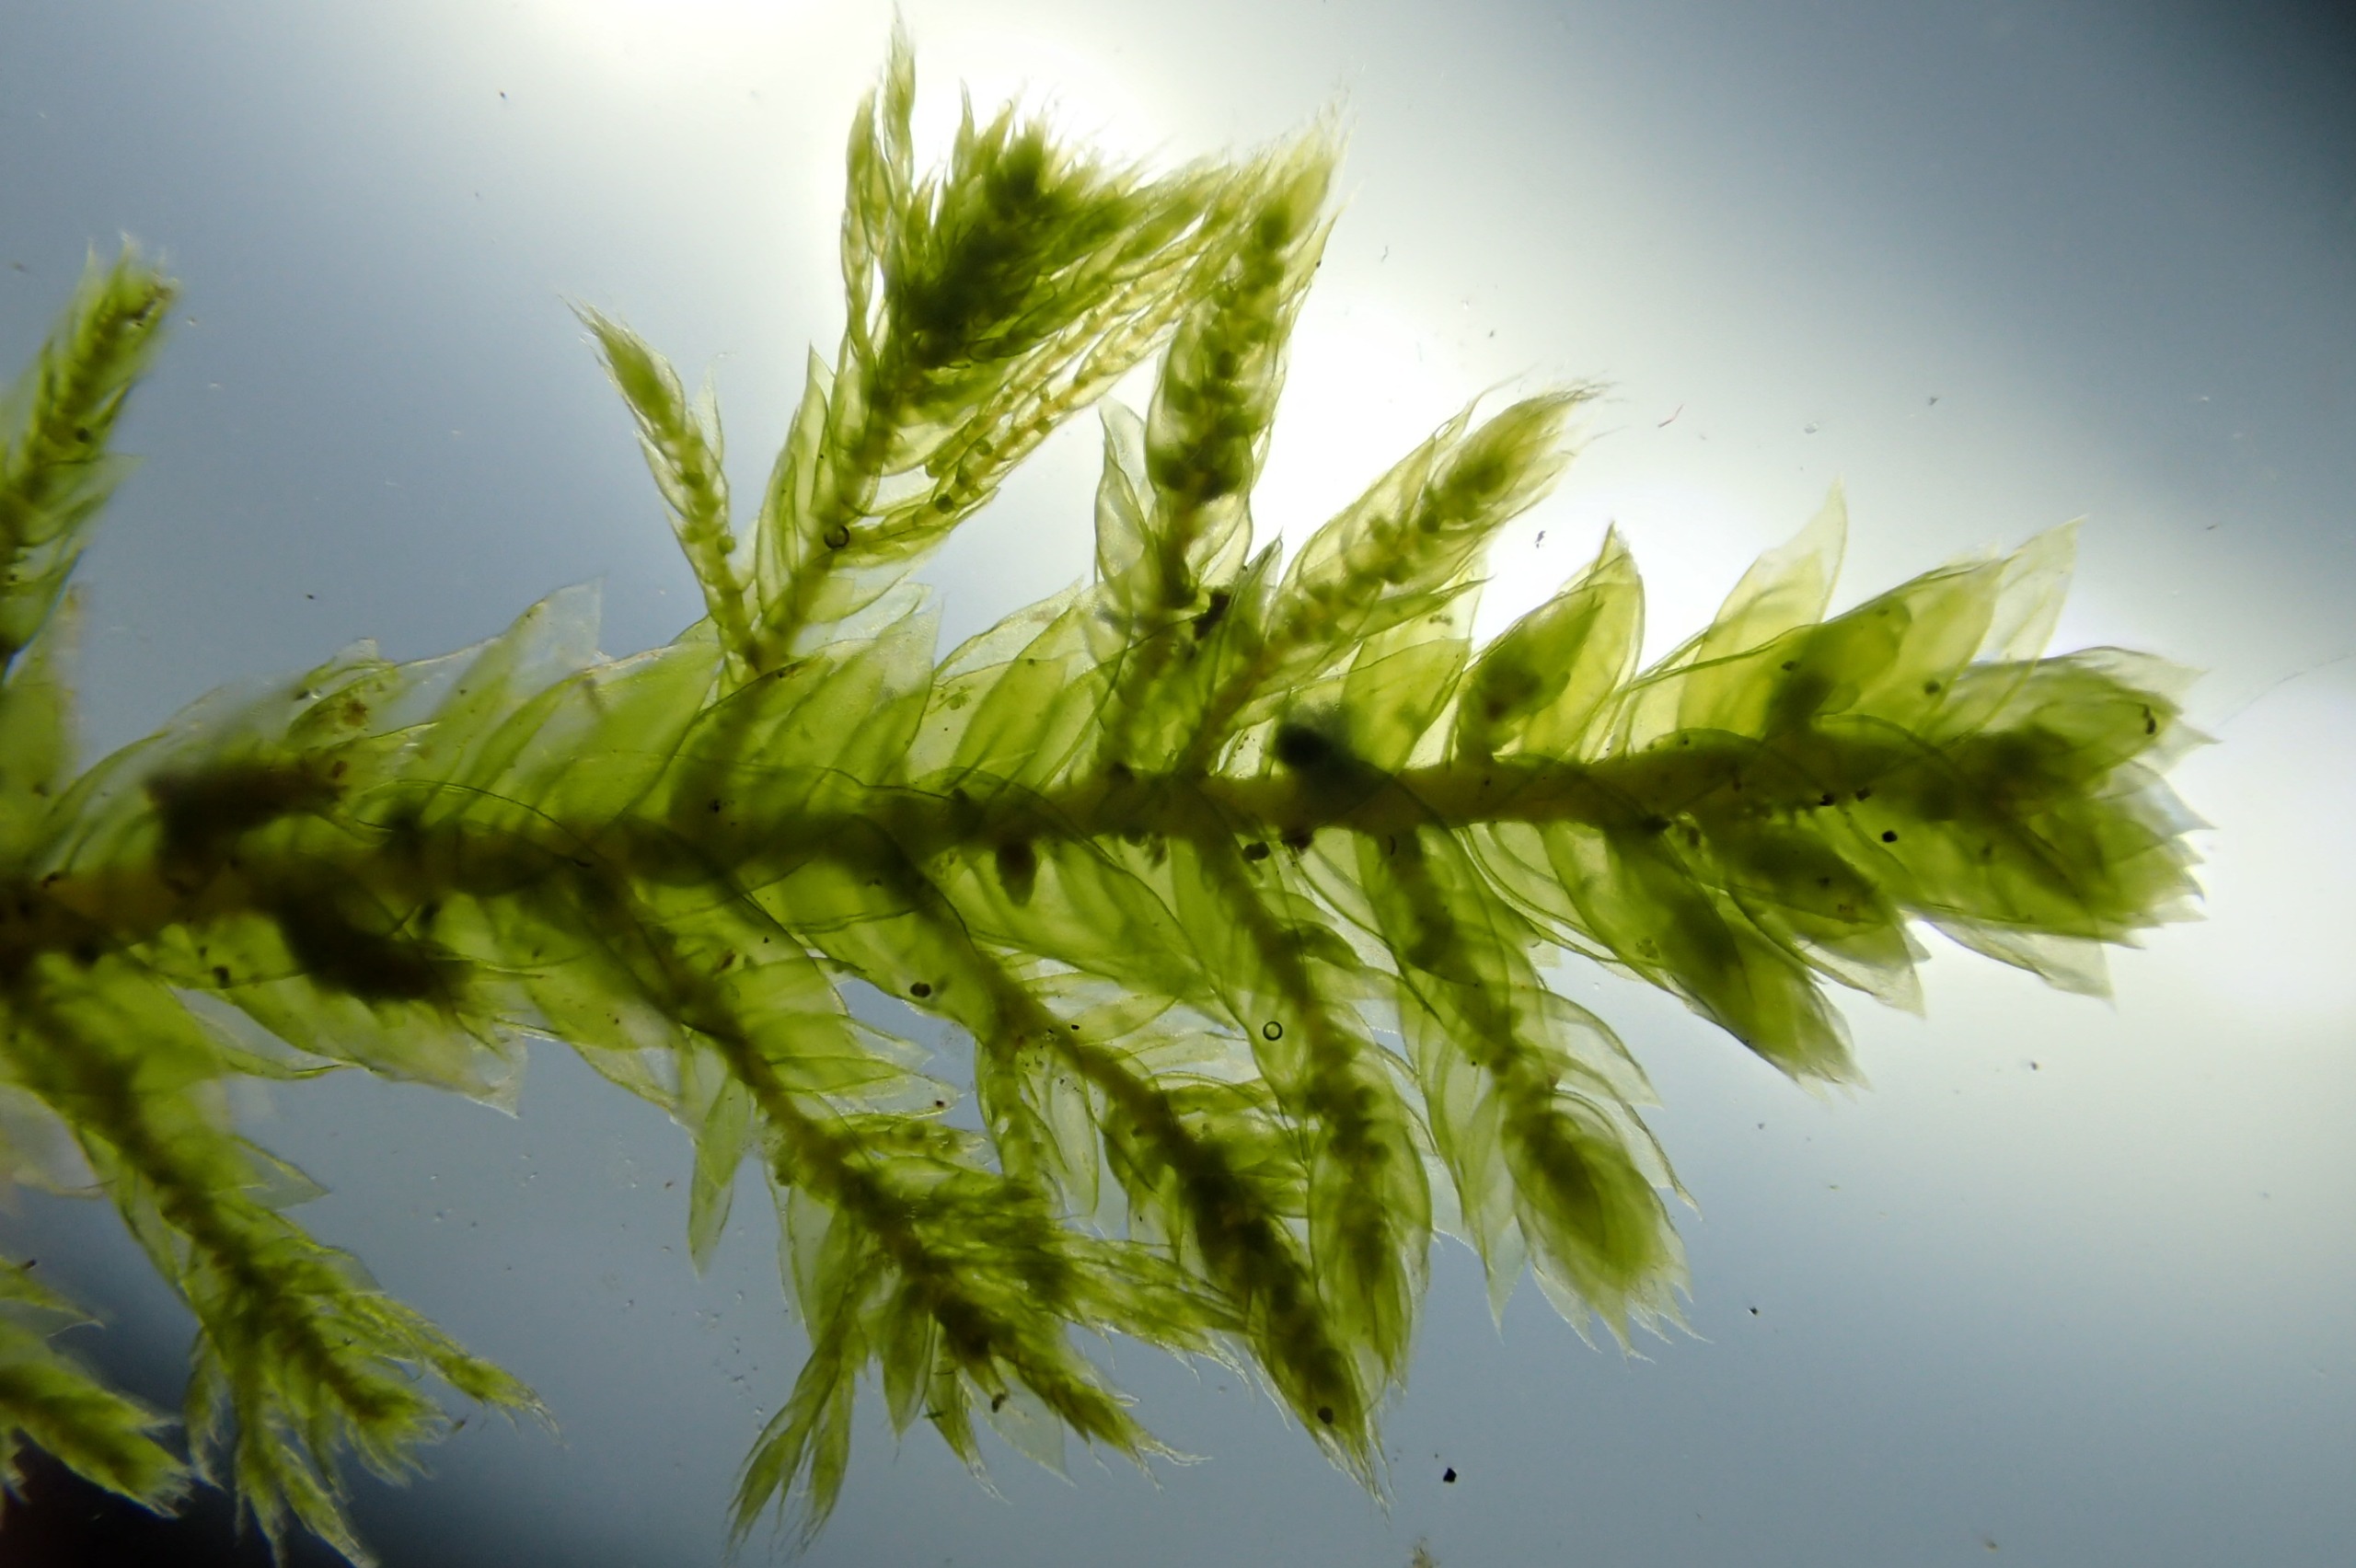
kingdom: Plantae
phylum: Bryophyta
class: Bryopsida
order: Hypnales
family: Neckeraceae
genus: Neckera
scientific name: Neckera pumila
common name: Lav fladmos
